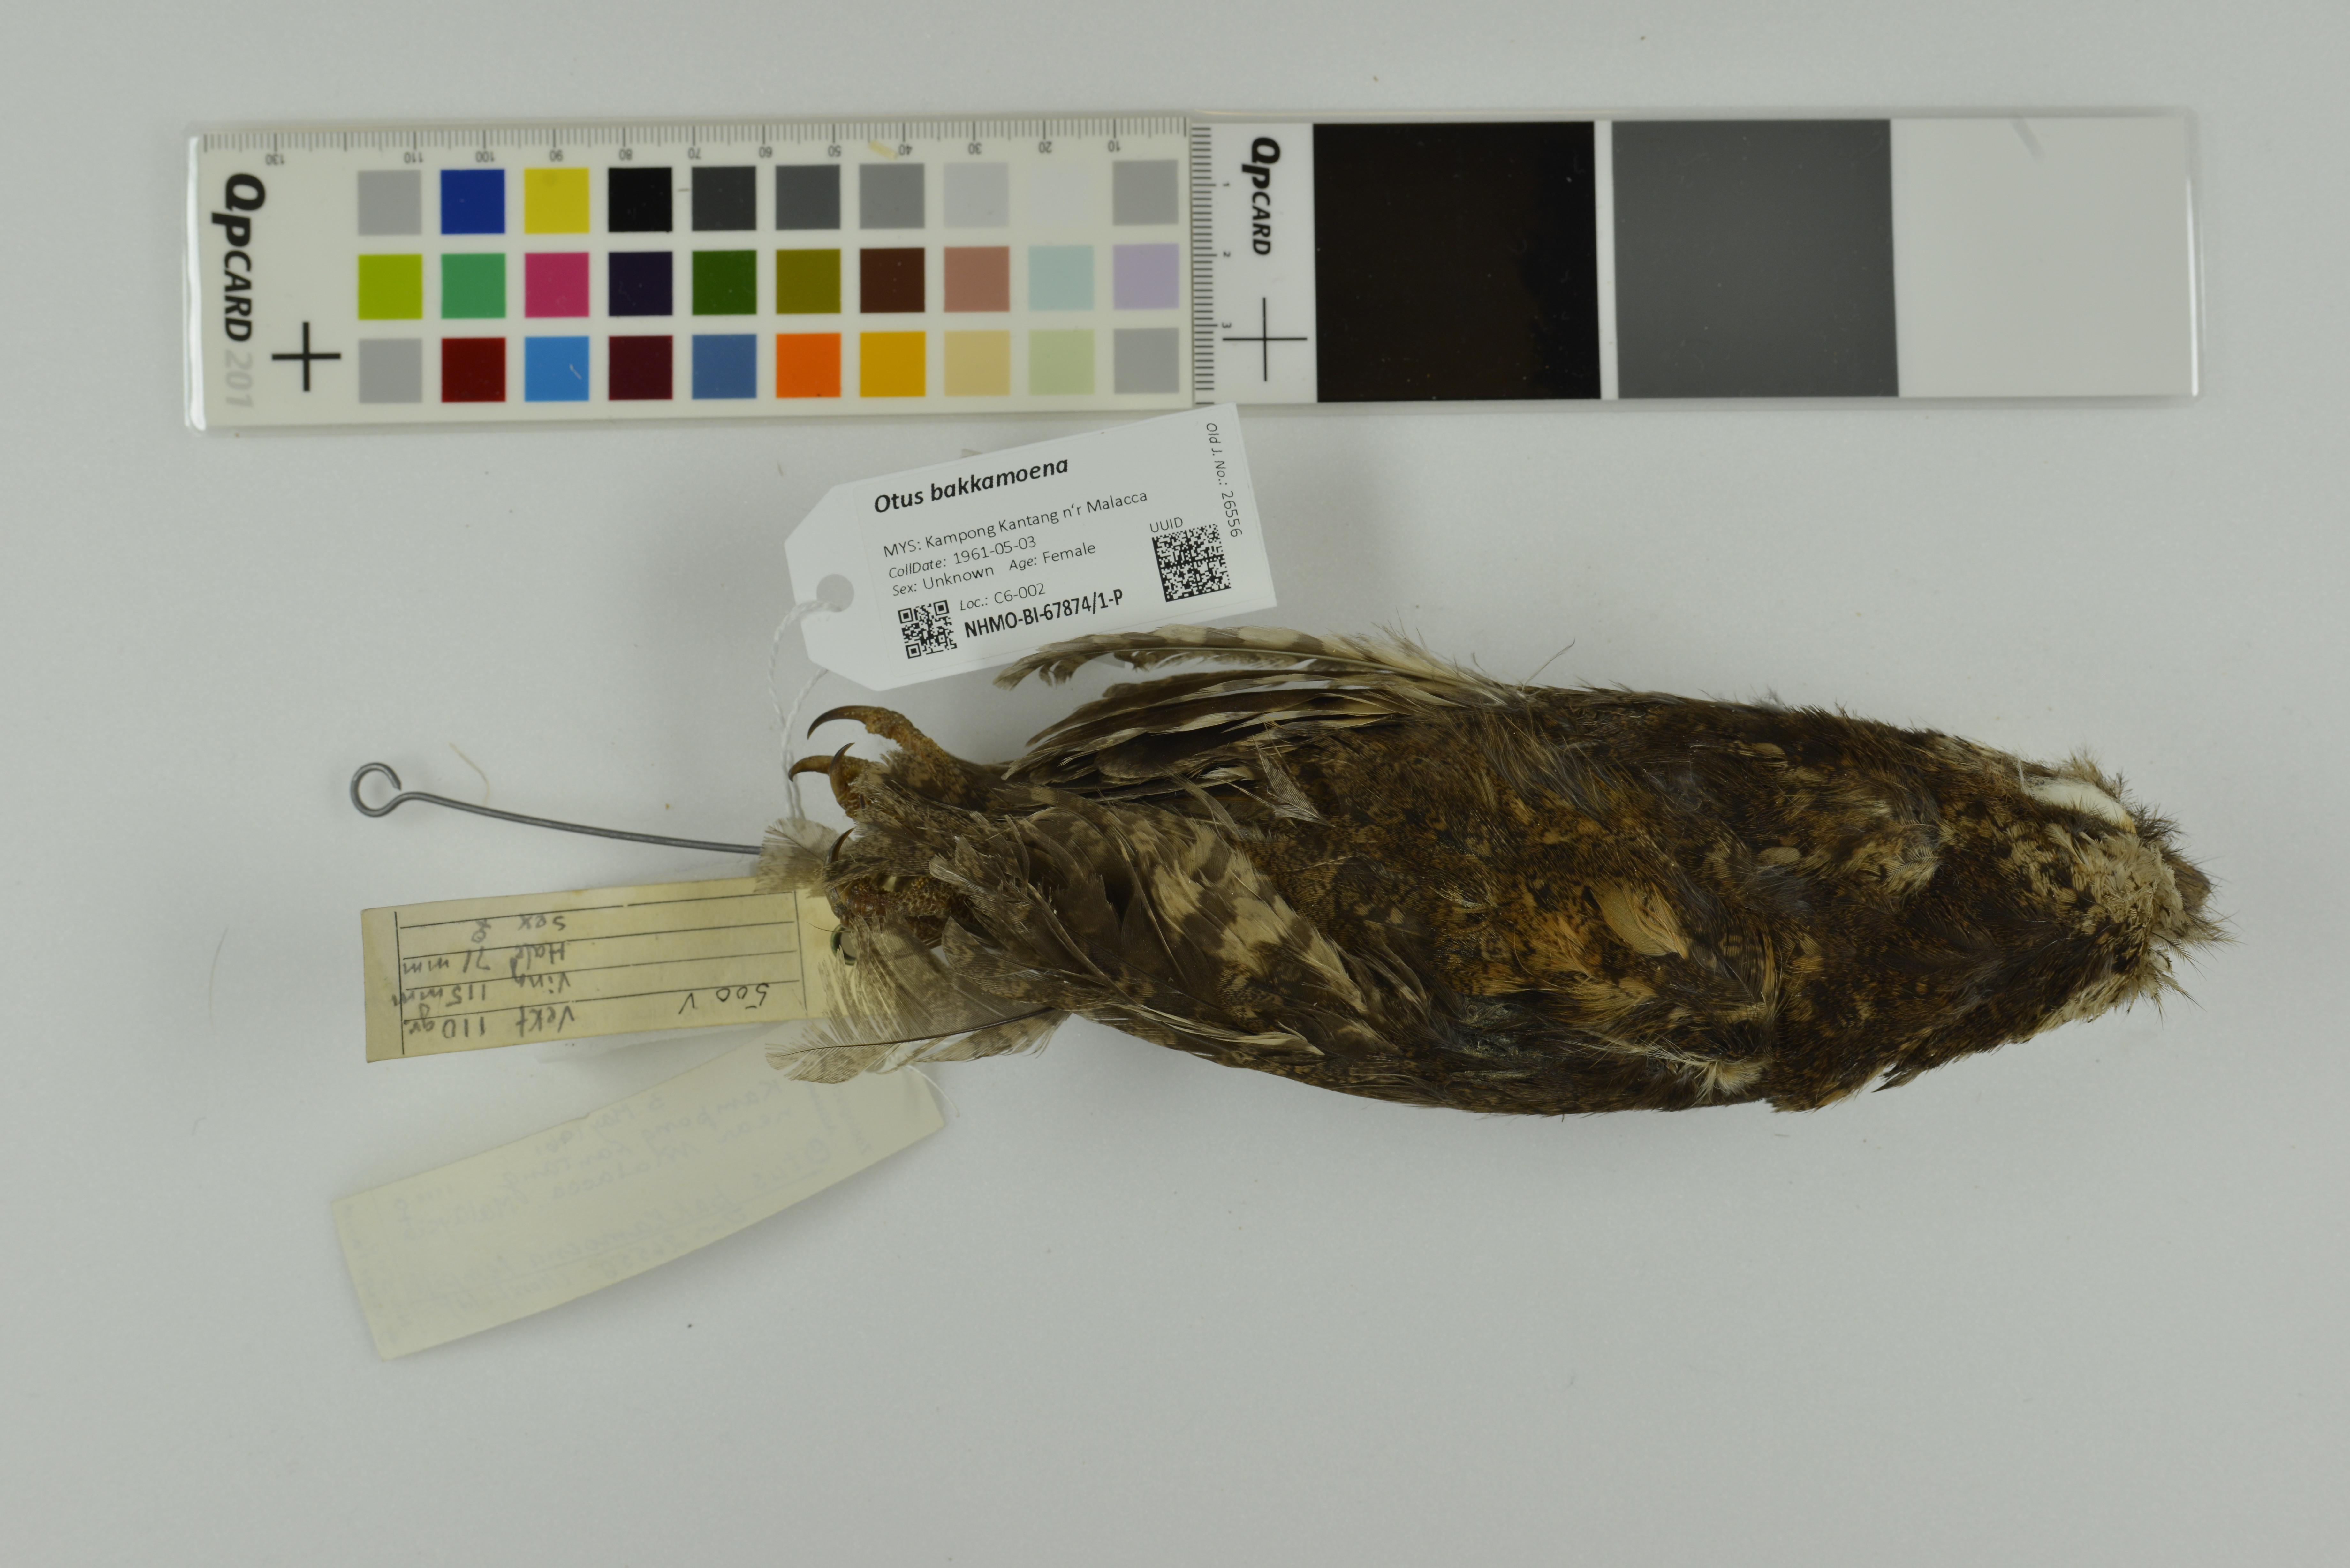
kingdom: Animalia
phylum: Chordata
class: Aves
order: Strigiformes
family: Strigidae
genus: Otus
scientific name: Otus bakkamoena
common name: Indian scops owl
